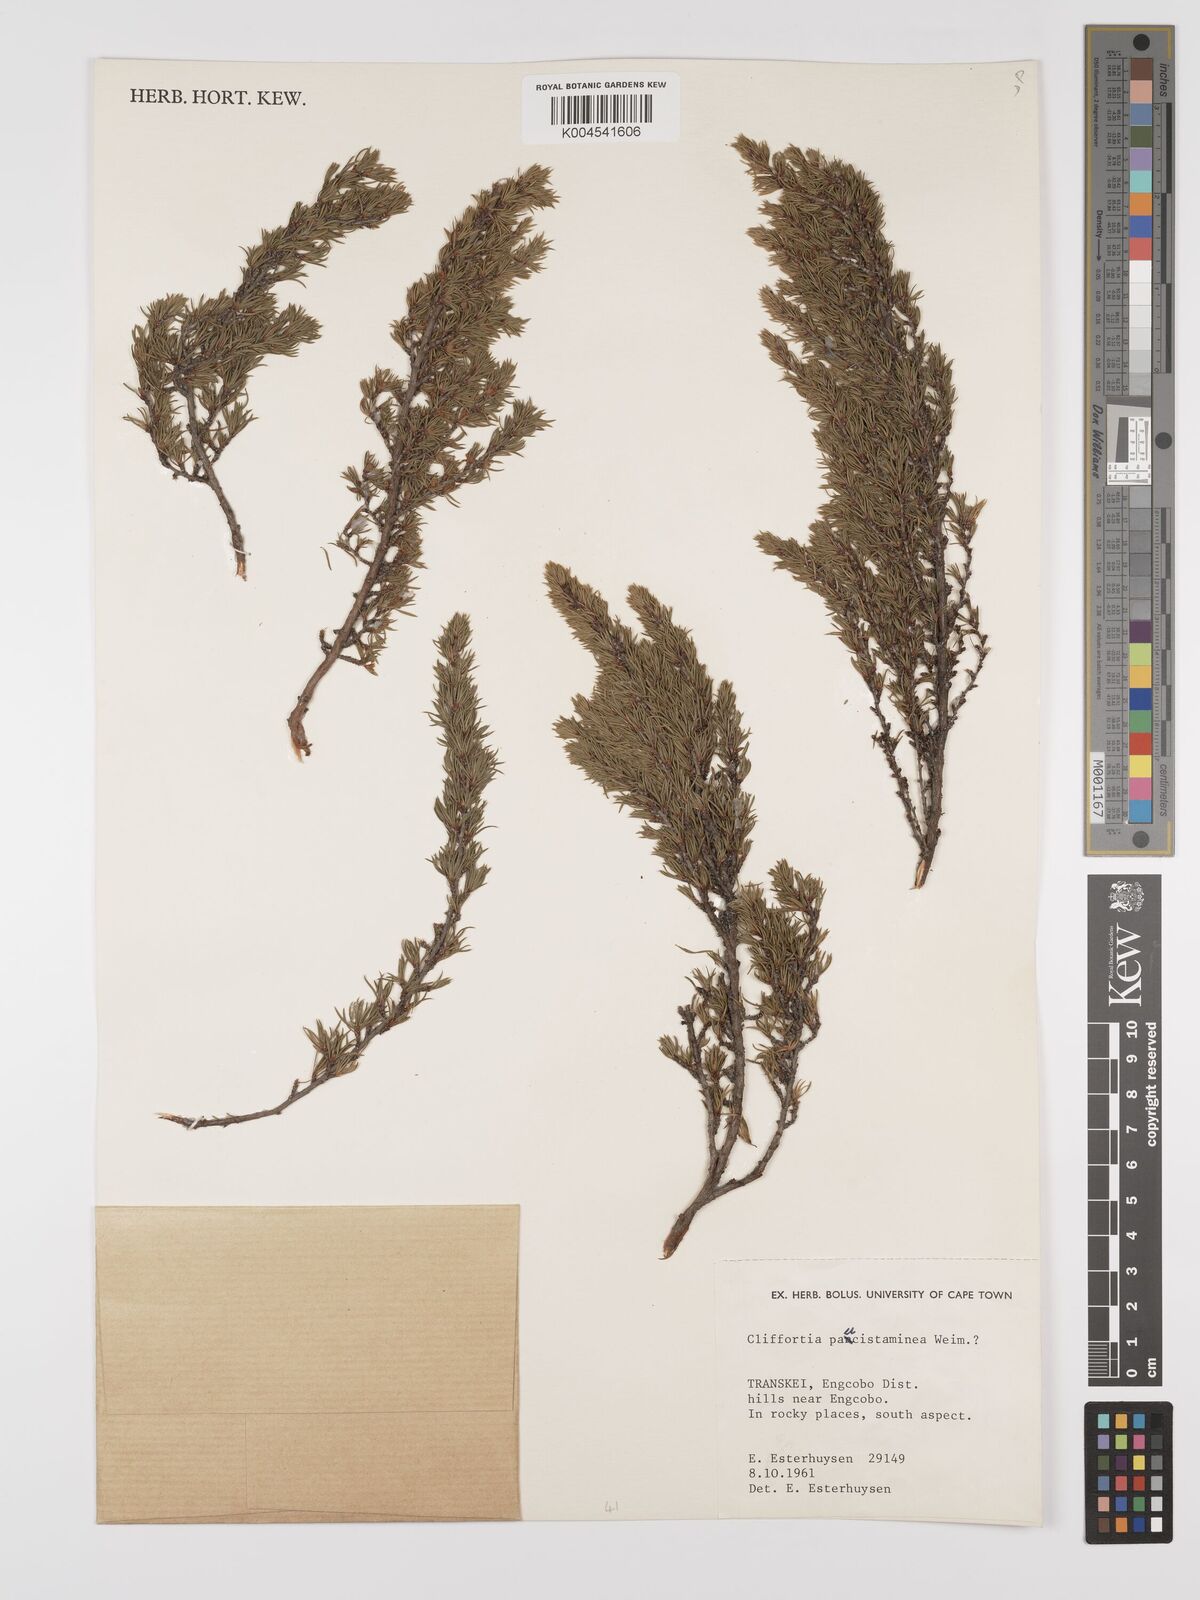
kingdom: Plantae
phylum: Tracheophyta
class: Magnoliopsida
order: Rosales
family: Rosaceae
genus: Cliffortia
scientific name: Cliffortia paucistaminea
